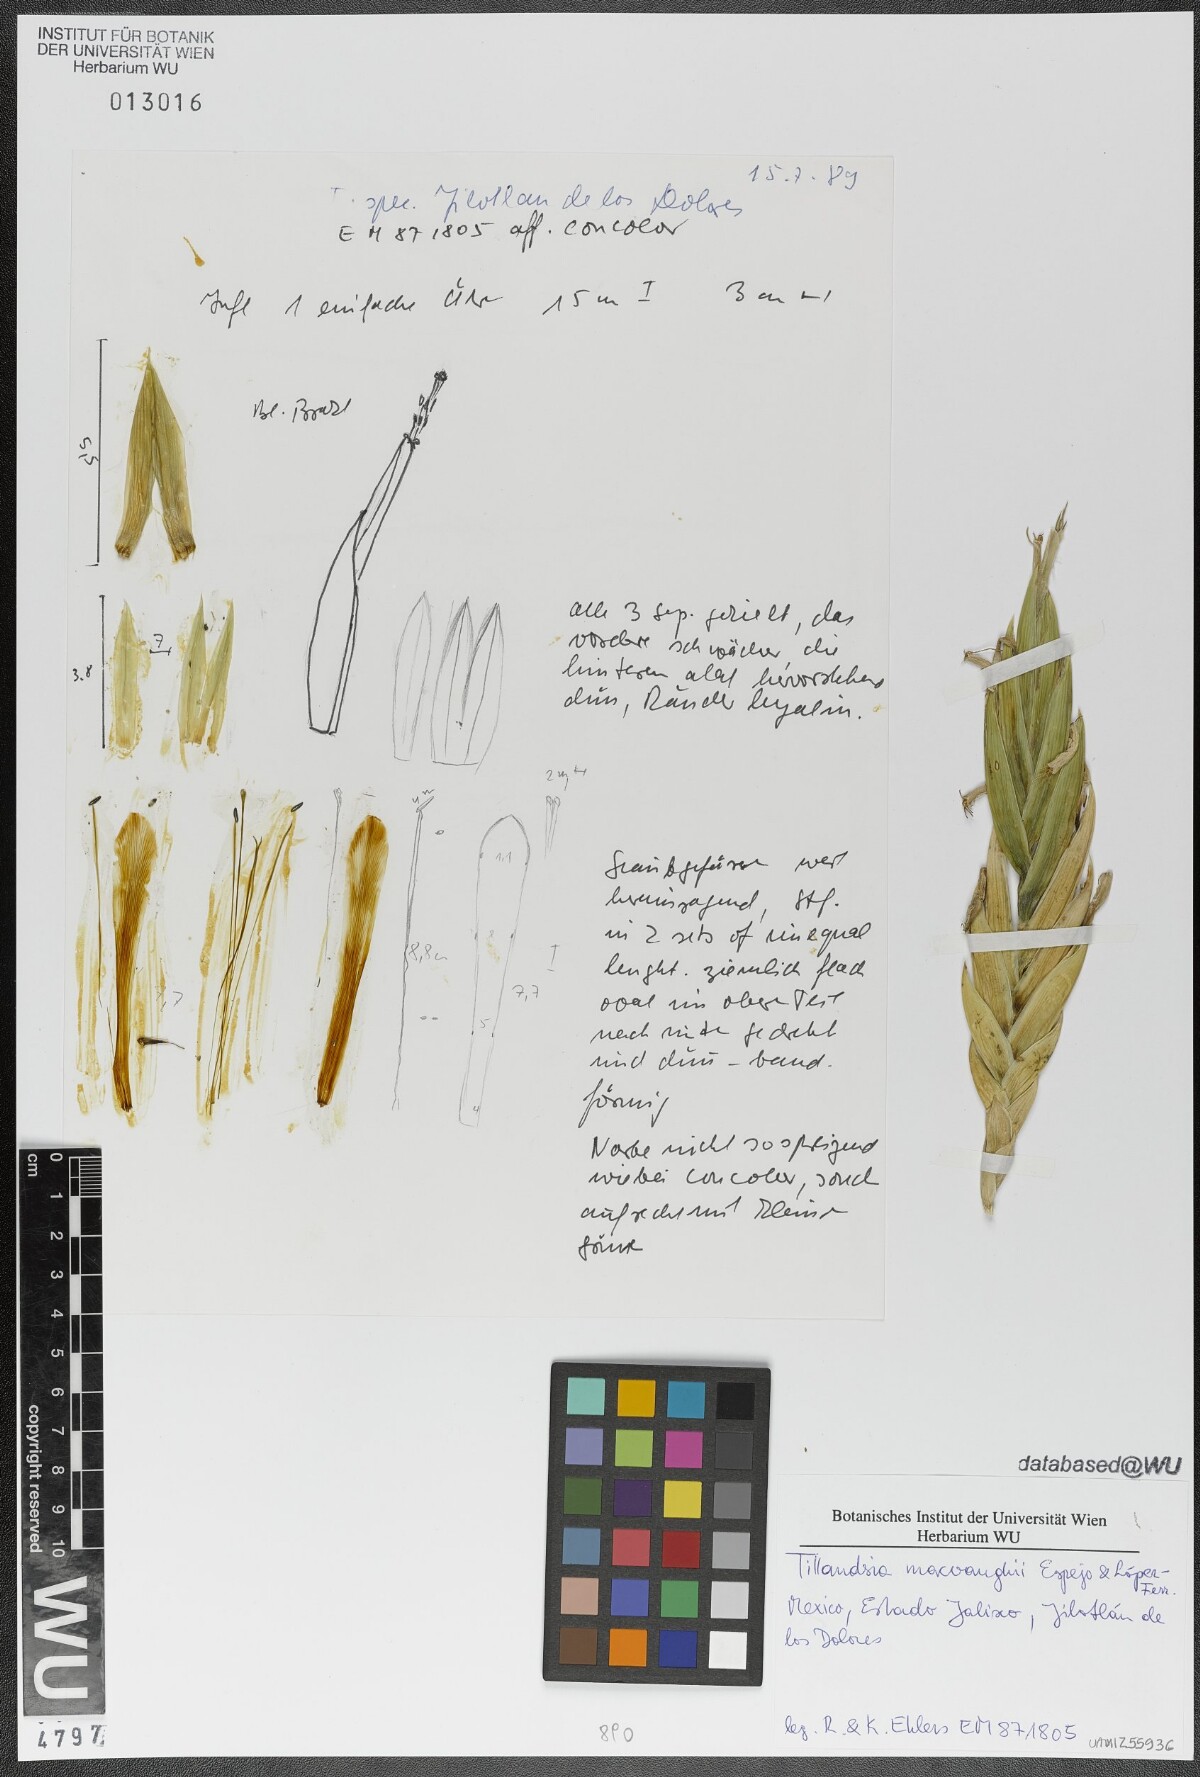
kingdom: Plantae
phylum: Tracheophyta
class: Liliopsida
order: Poales
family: Bromeliaceae
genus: Tillandsia
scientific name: Tillandsia macvaughii
